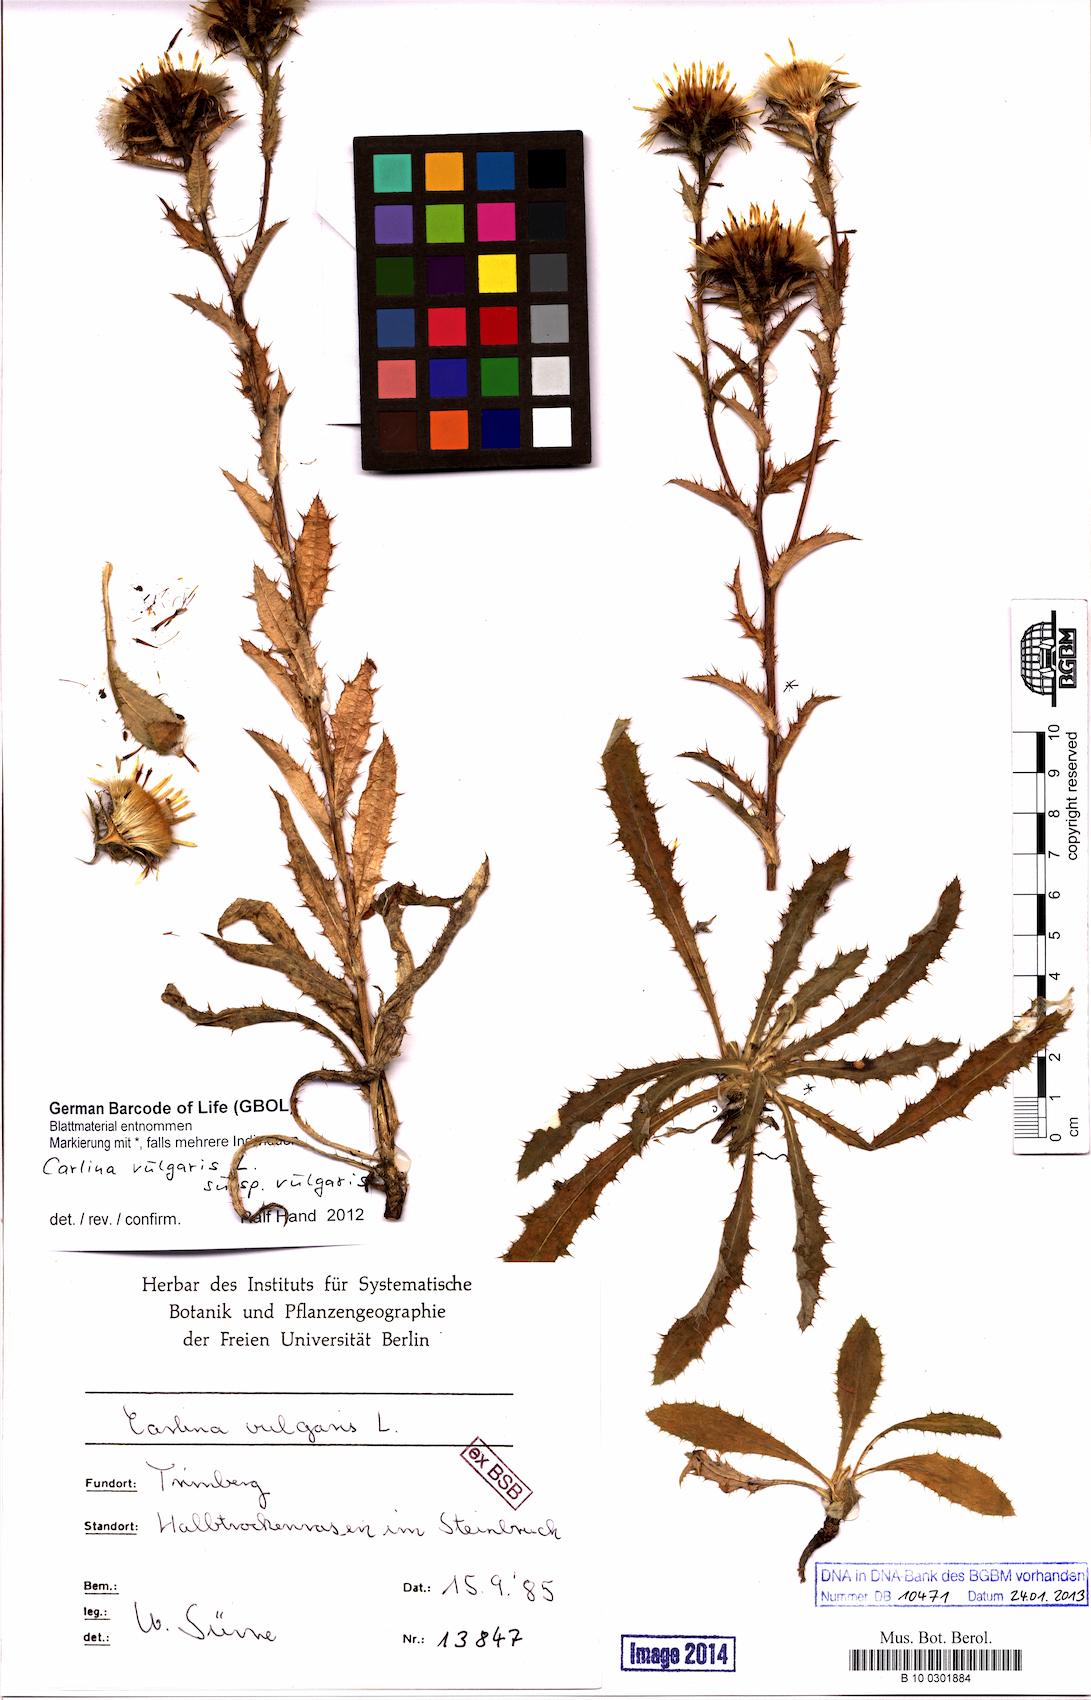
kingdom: Plantae
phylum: Tracheophyta
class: Magnoliopsida
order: Asterales
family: Asteraceae
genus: Carlina
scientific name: Carlina vulgaris
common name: Carline thistle
